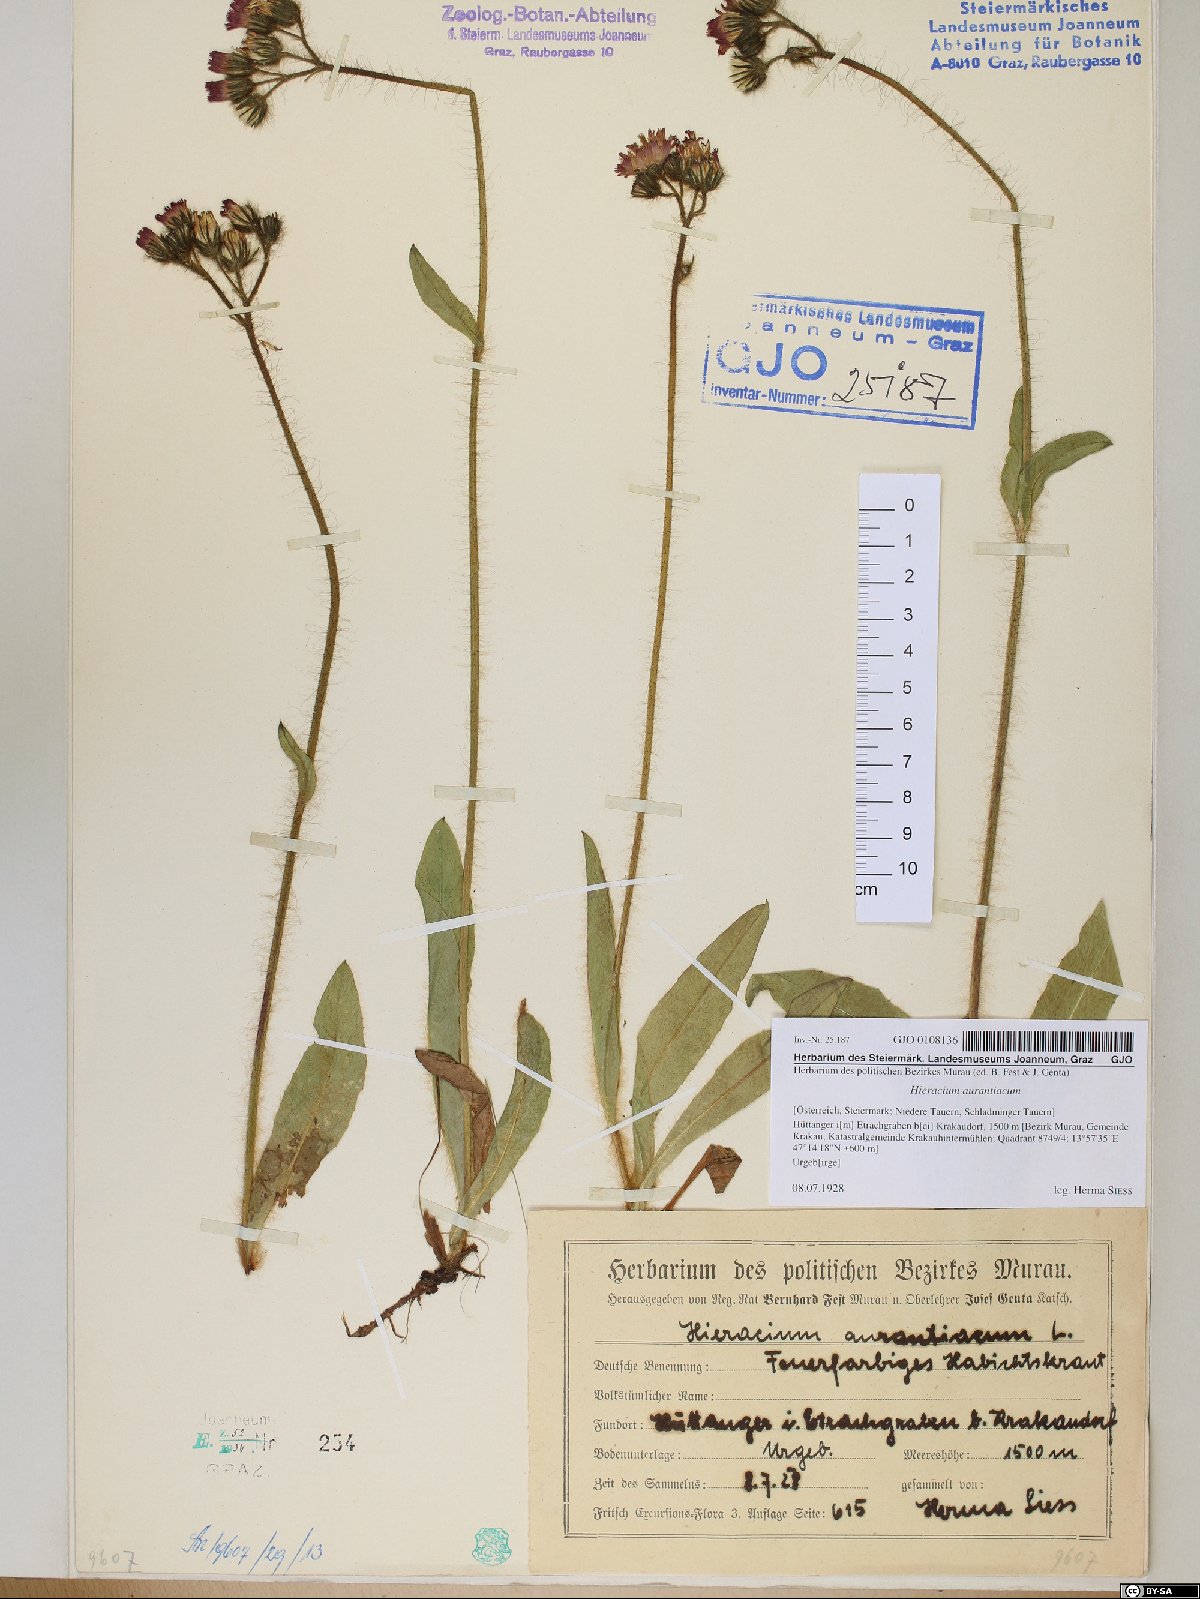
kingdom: Plantae
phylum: Tracheophyta
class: Magnoliopsida
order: Asterales
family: Asteraceae
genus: Pilosella
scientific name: Pilosella aurantiaca
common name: Fox-and-cubs
